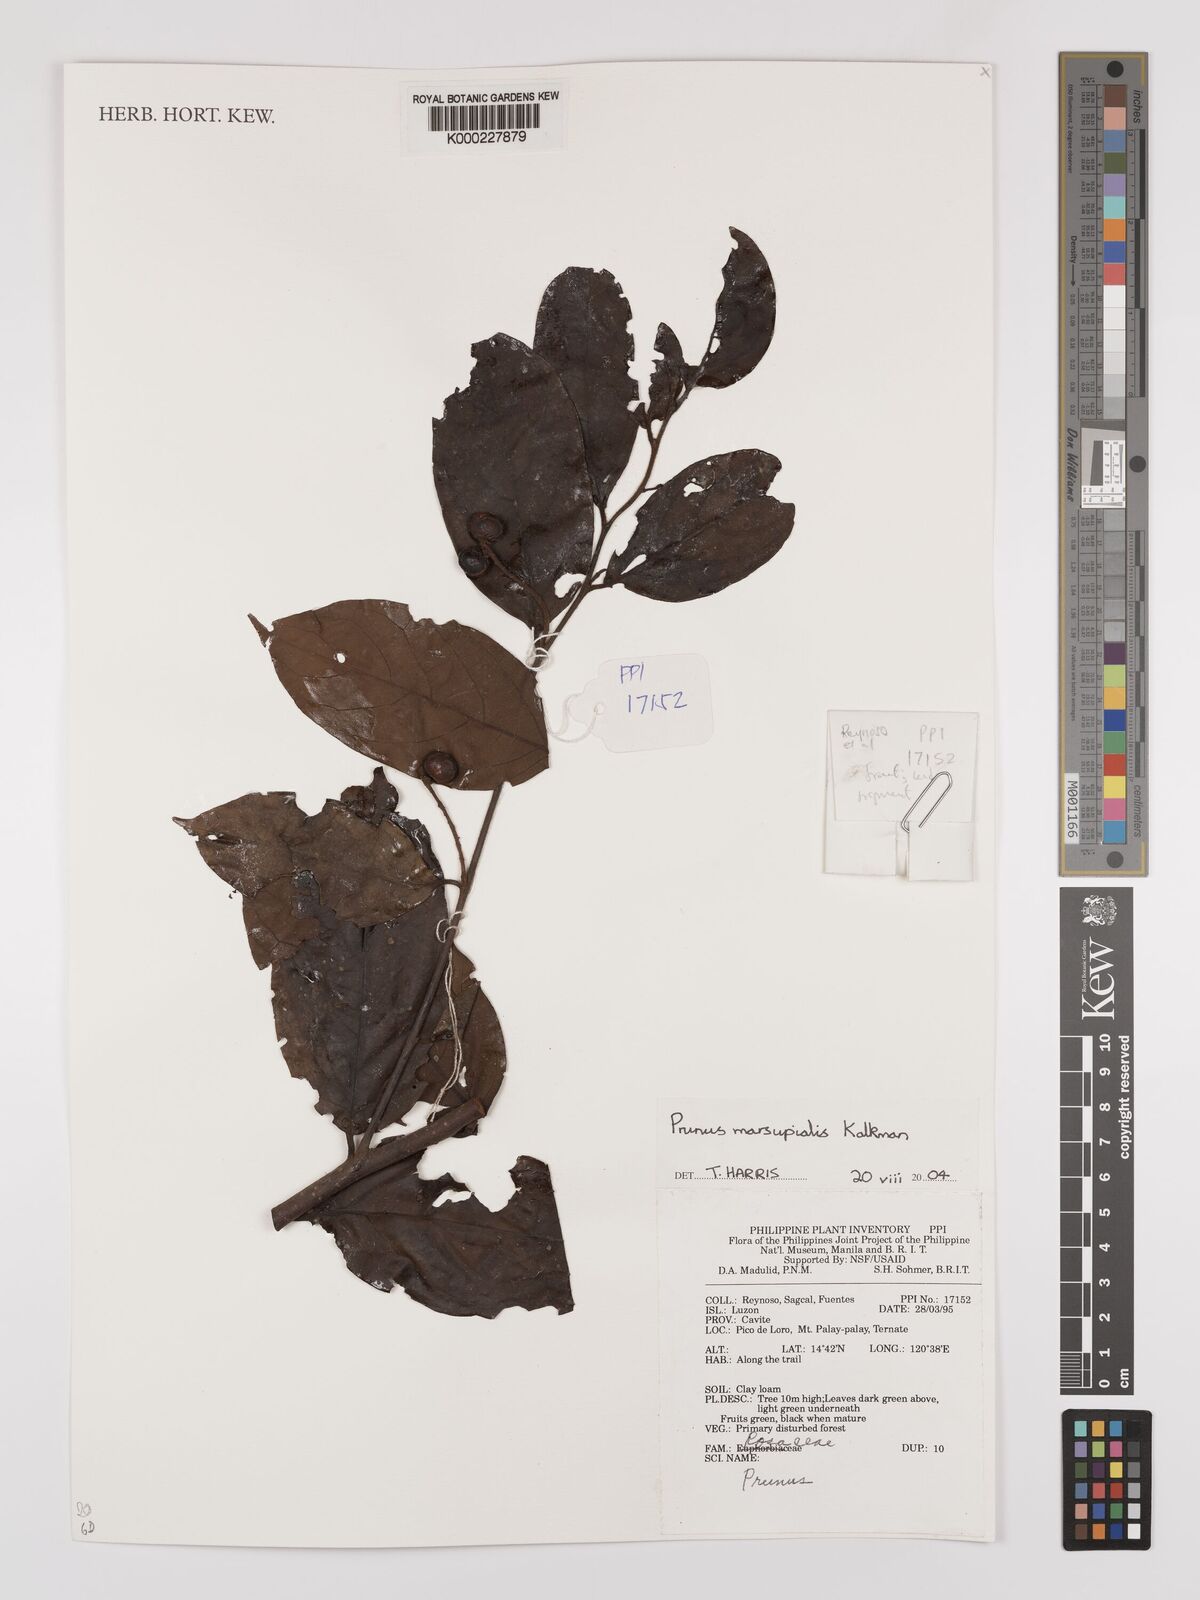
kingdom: Plantae
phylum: Tracheophyta
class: Magnoliopsida
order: Rosales
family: Rosaceae
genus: Prunus
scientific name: Prunus marsupialis
